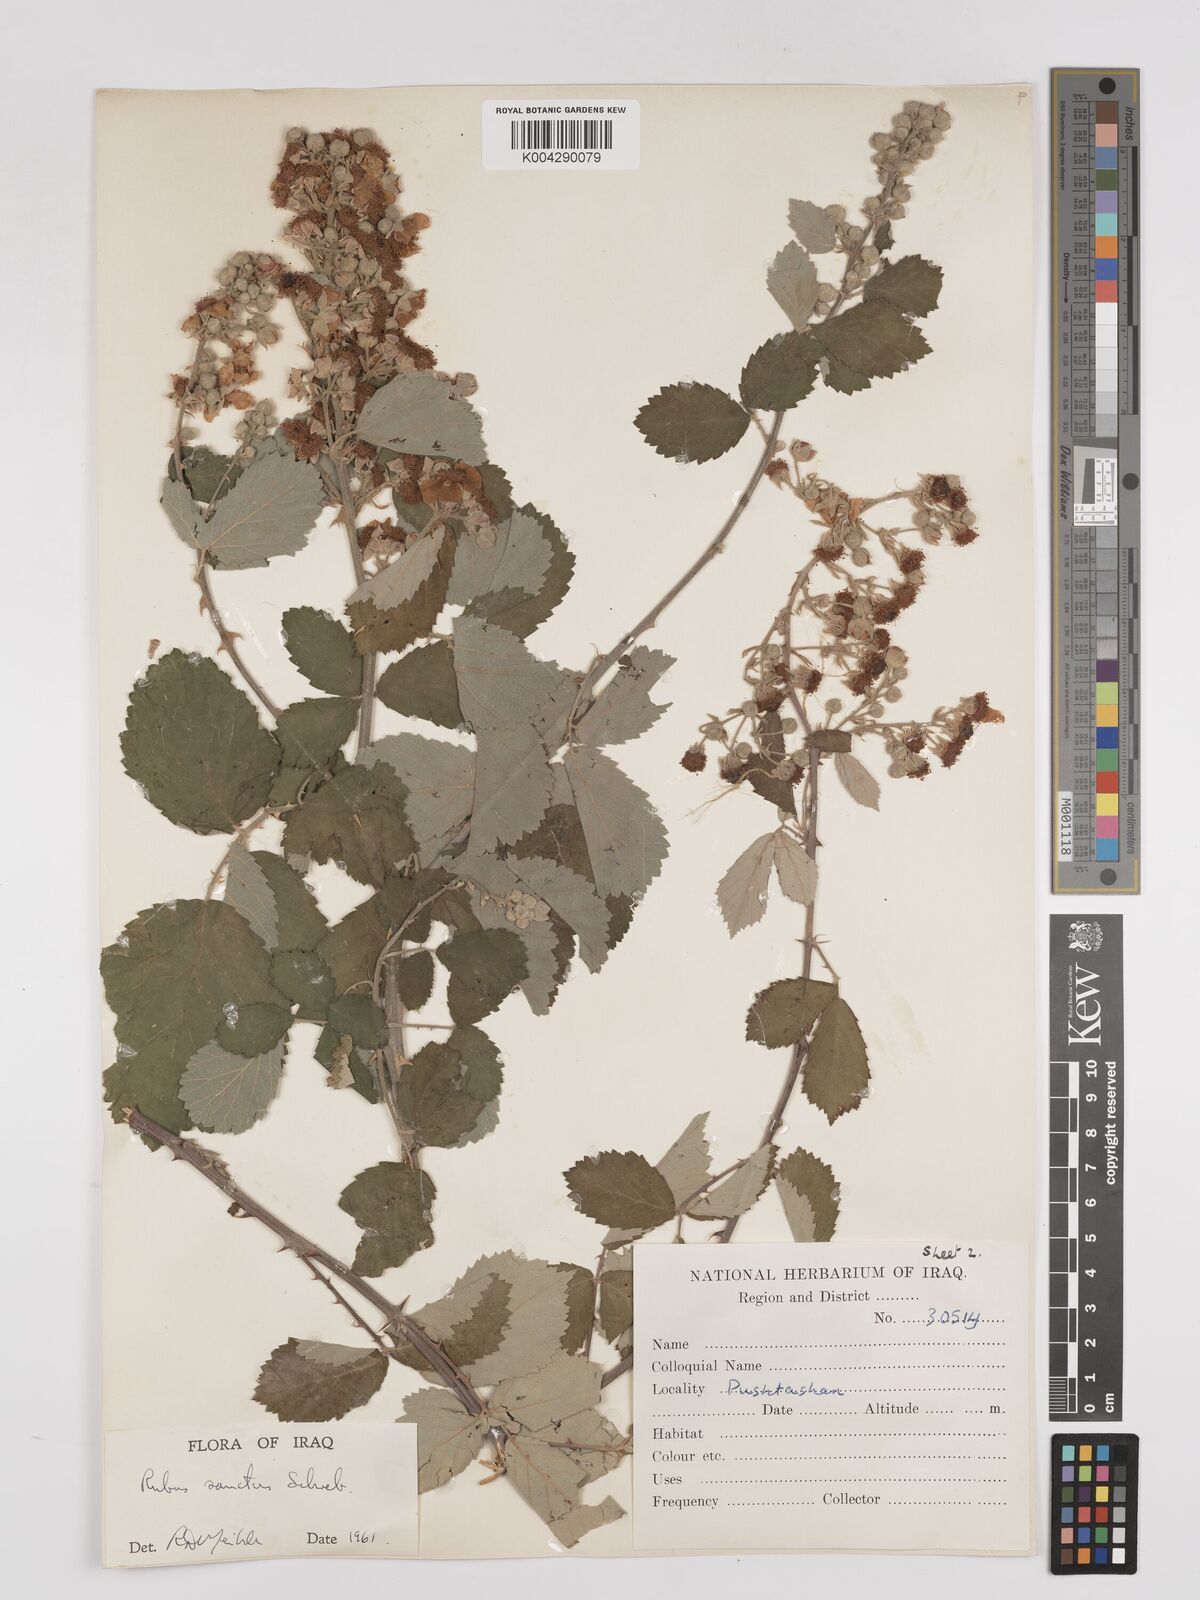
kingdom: Plantae
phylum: Tracheophyta
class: Magnoliopsida
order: Rosales
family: Rosaceae
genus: Rubus
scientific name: Rubus sanctus
